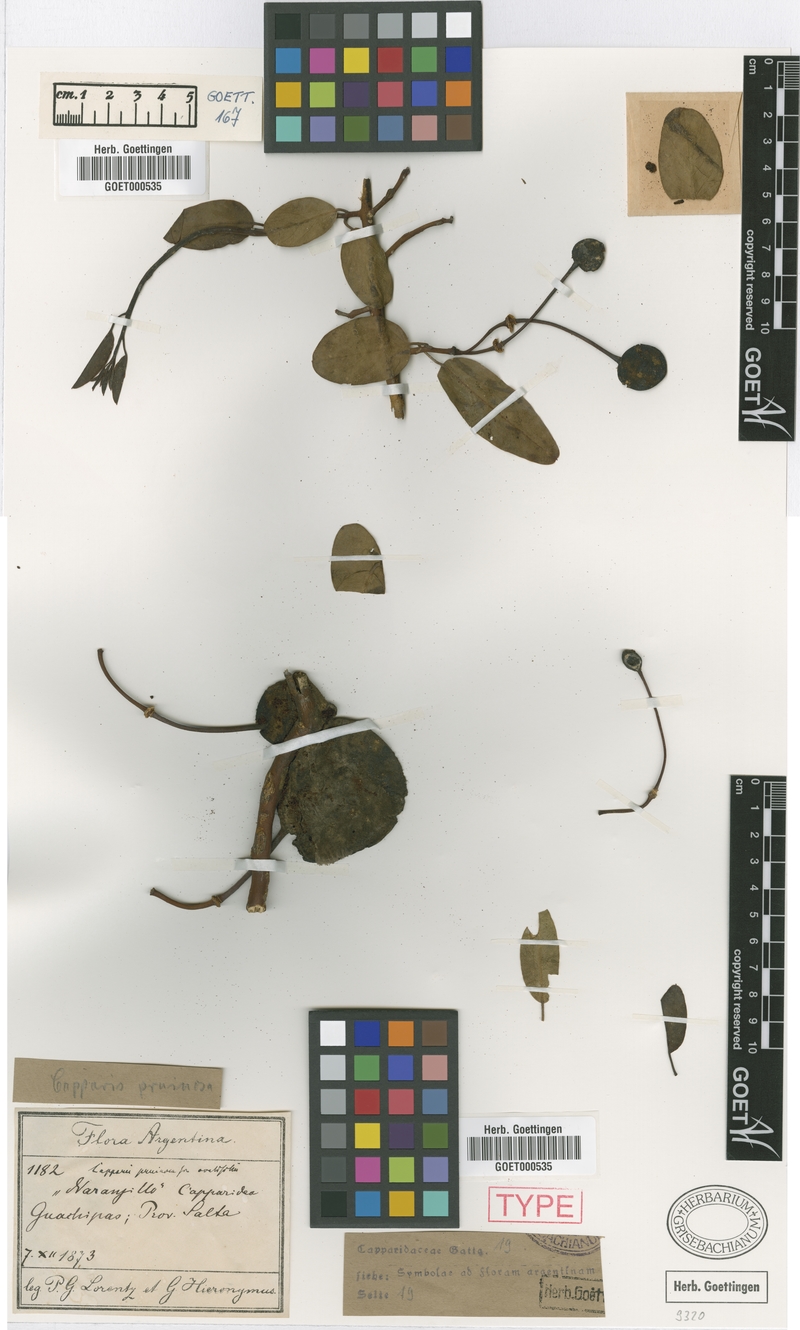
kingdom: Plantae
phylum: Tracheophyta
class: Magnoliopsida
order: Brassicales
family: Capparaceae
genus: Anisocapparis
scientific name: Anisocapparis speciosa
